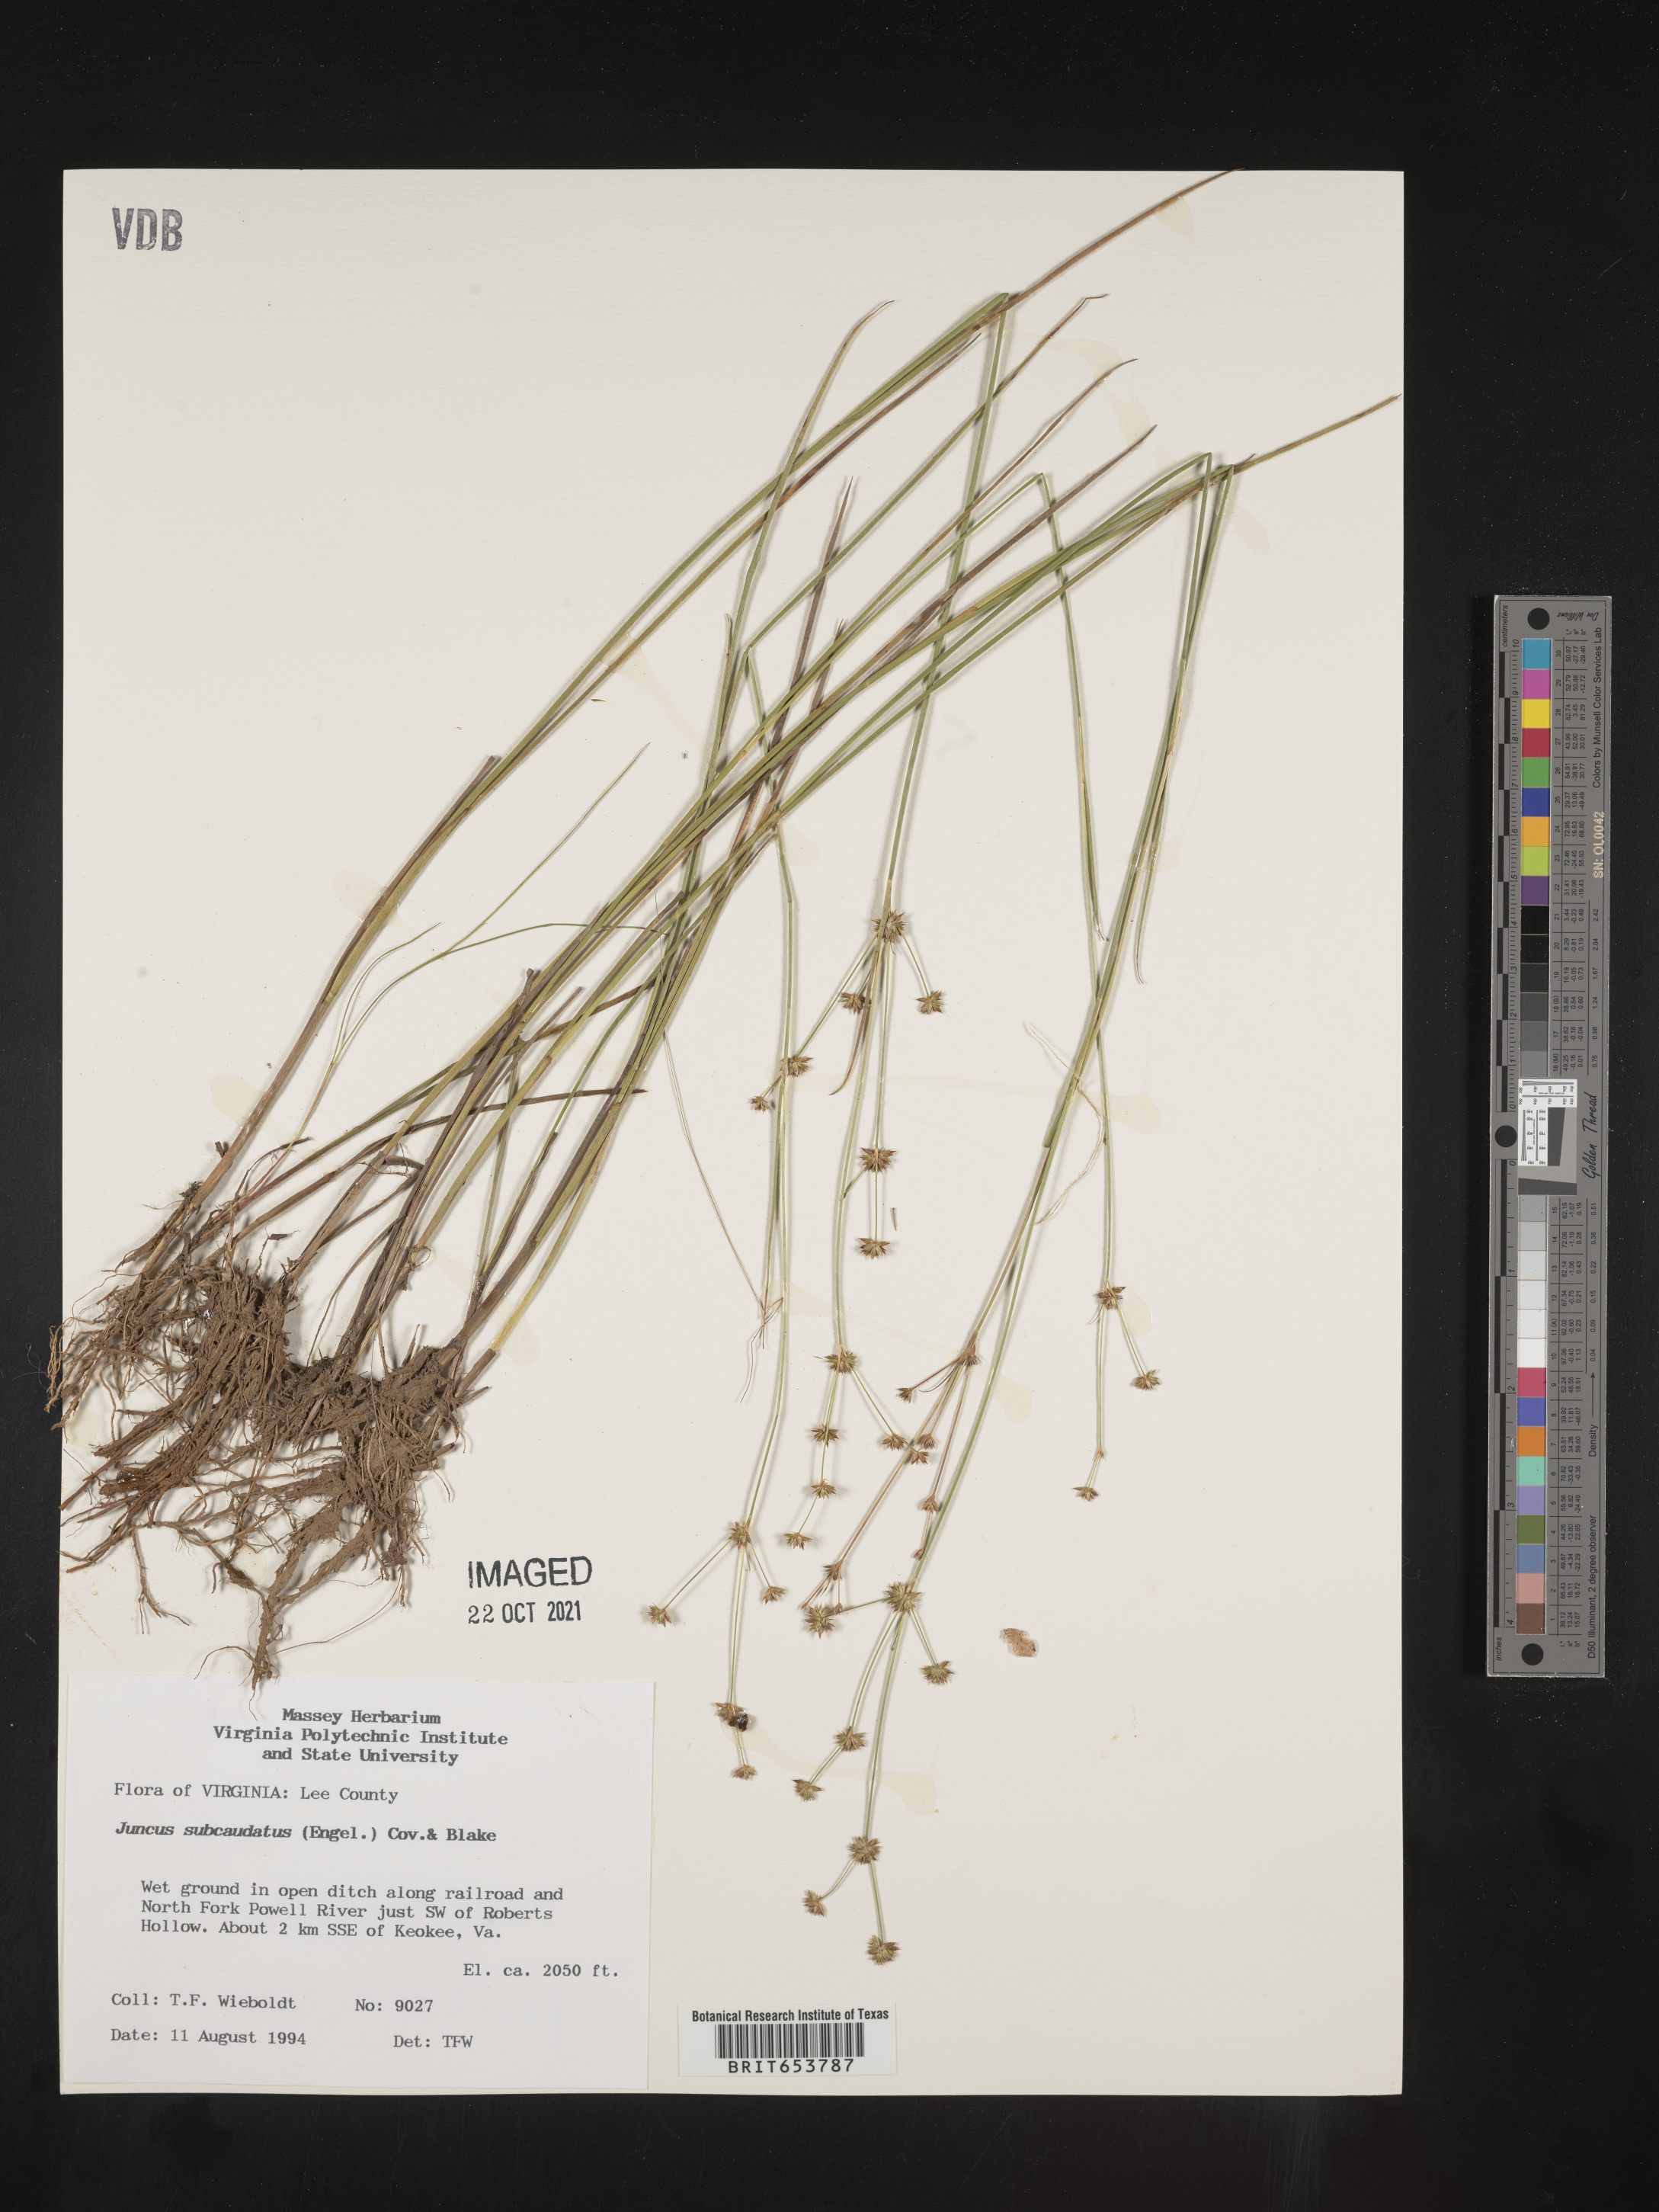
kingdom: Plantae
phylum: Tracheophyta
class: Liliopsida
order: Poales
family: Juncaceae
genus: Juncus
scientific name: Juncus subcaudatus
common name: Engelmann's rush
